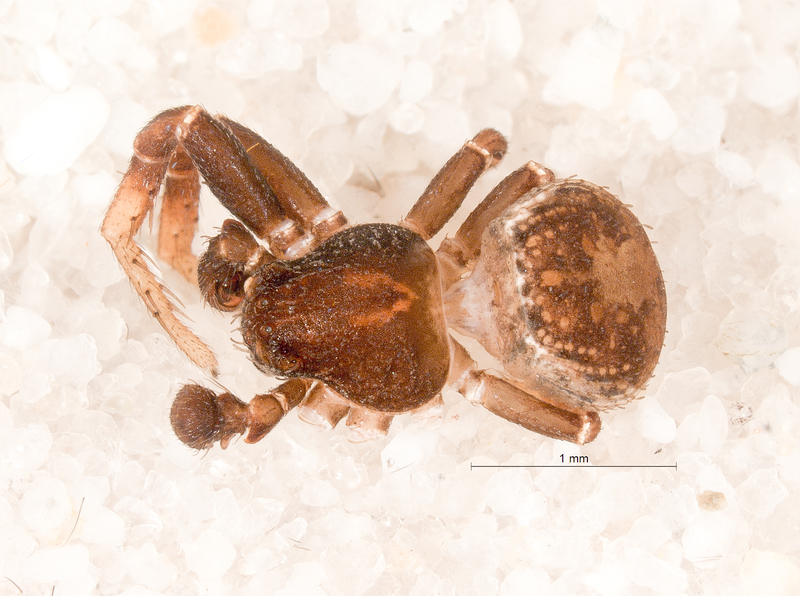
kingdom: Animalia
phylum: Arthropoda
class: Arachnida
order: Araneae
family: Thomisidae
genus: Ozyptila
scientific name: Ozyptila claveata
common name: Southern crablet
